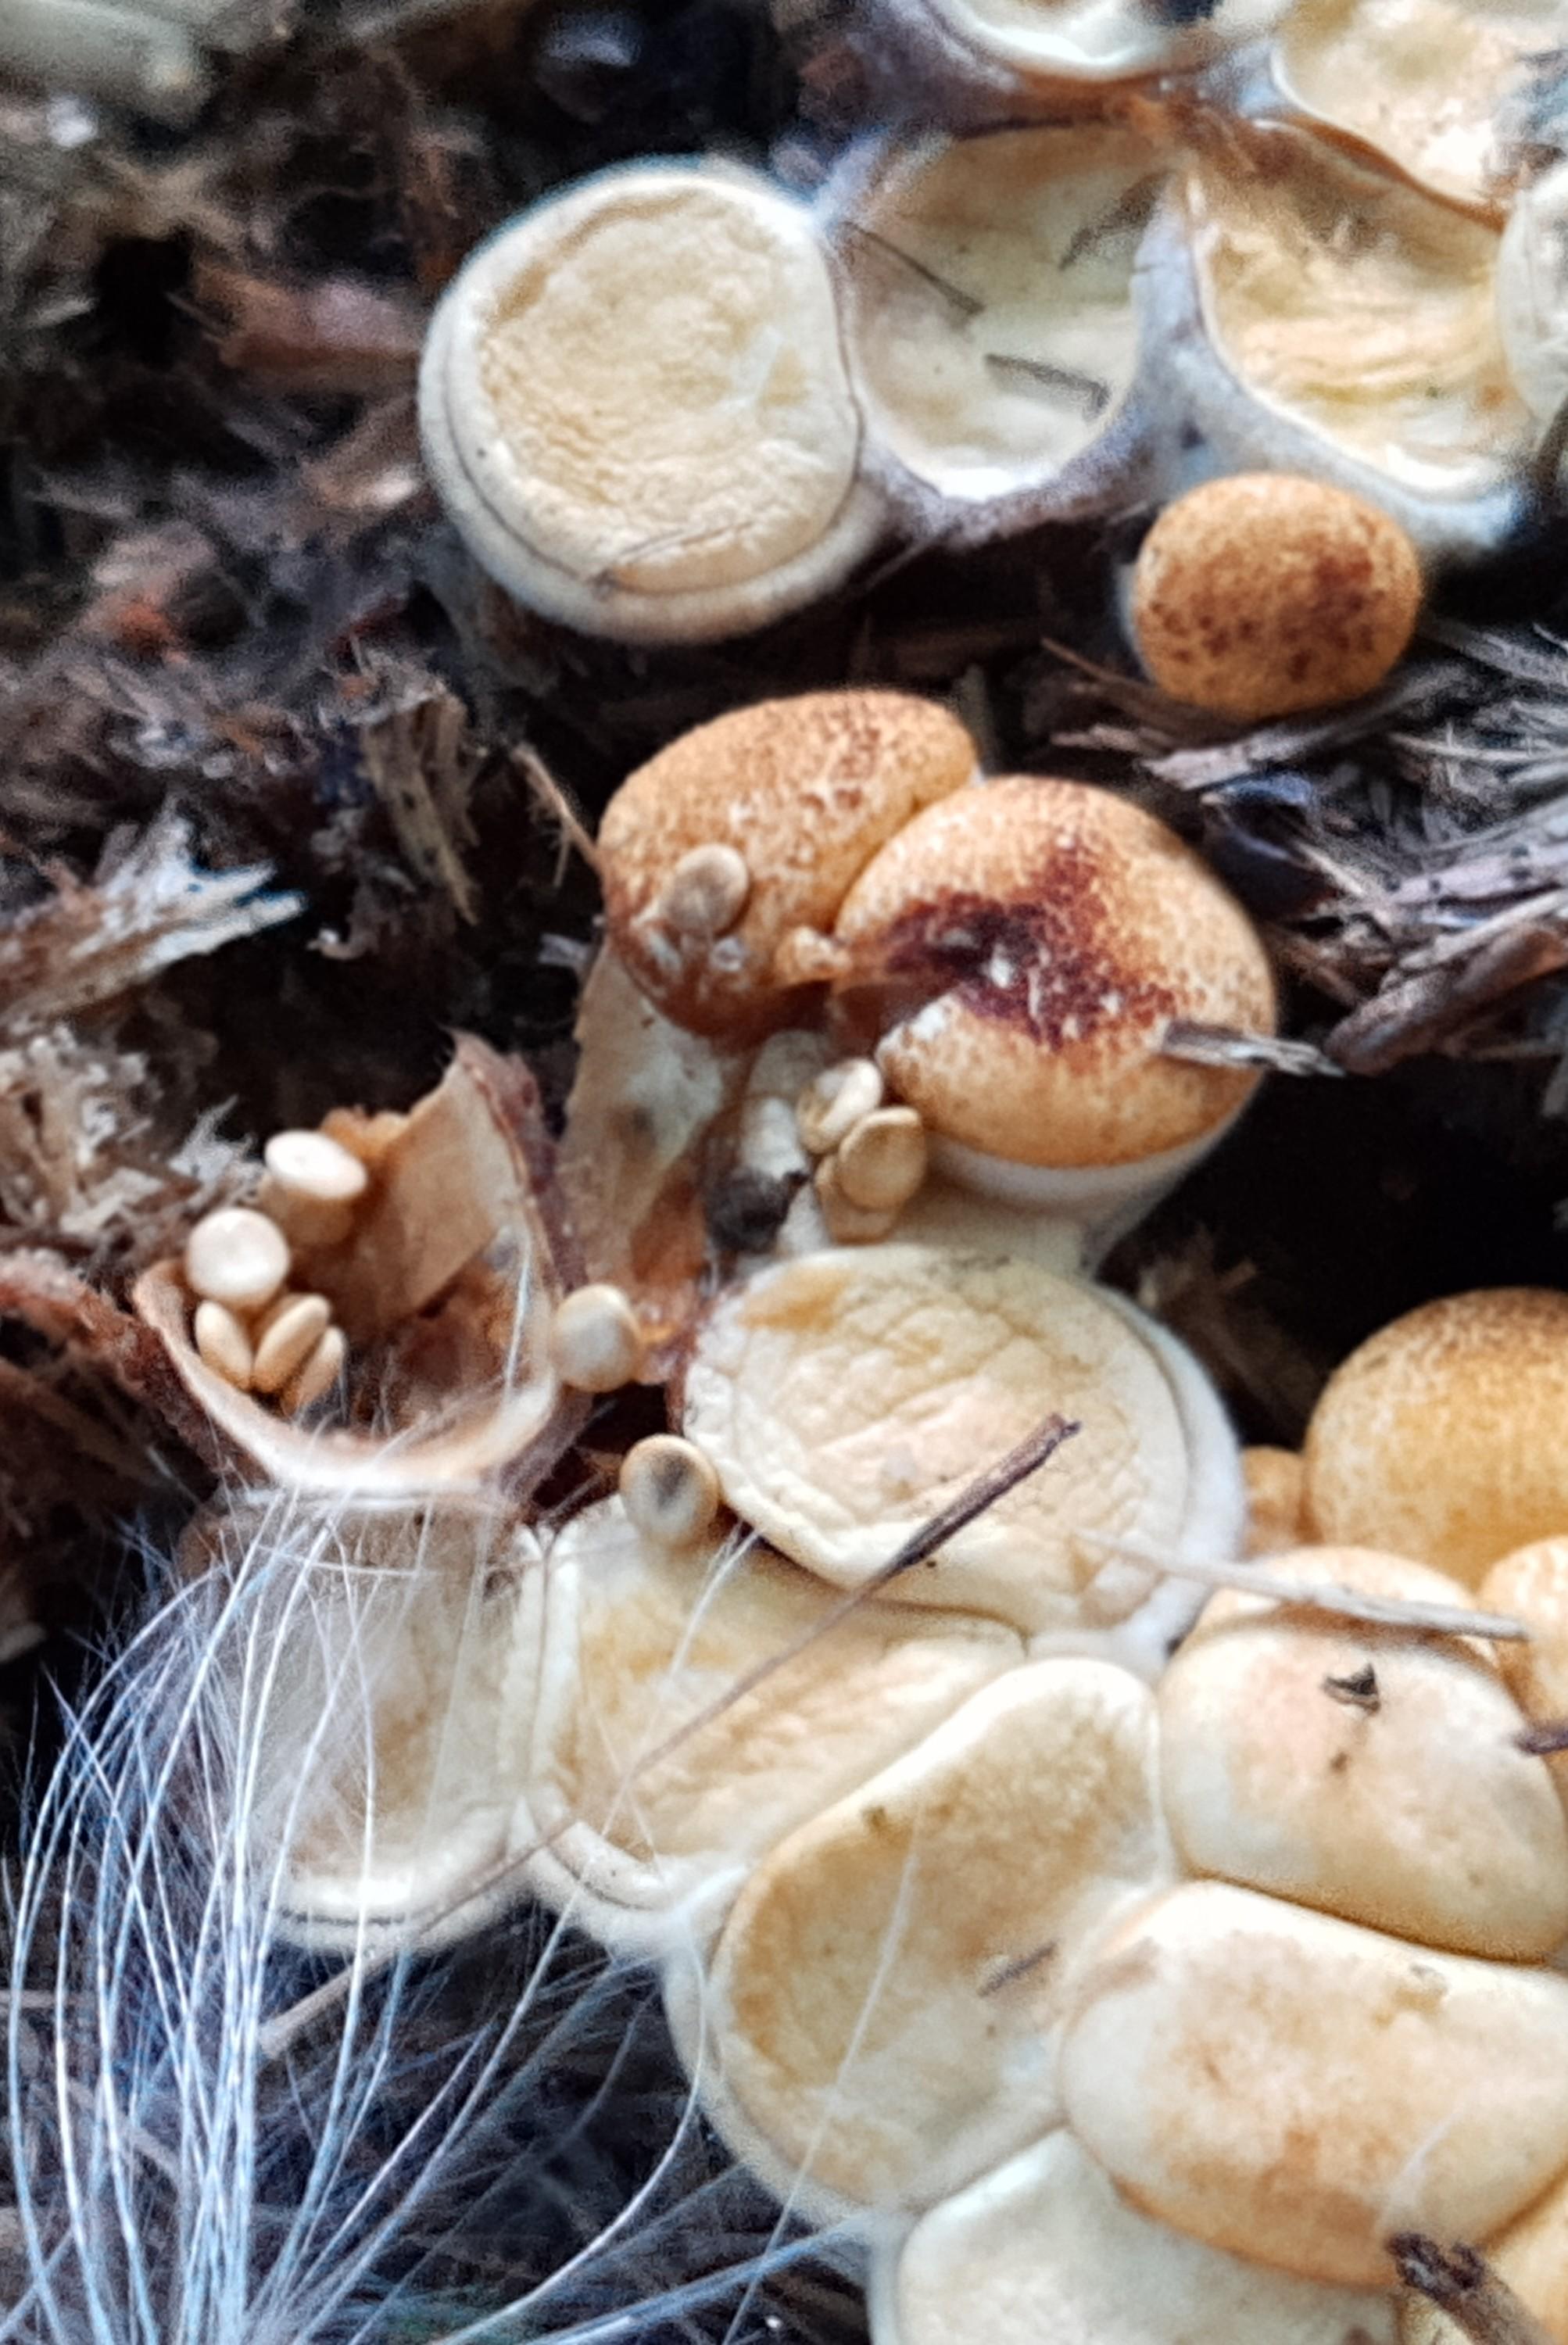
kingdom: Fungi
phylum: Basidiomycota
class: Agaricomycetes
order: Agaricales
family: Nidulariaceae
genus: Crucibulum
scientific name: Crucibulum crucibuliforme
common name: krukkesvamp
